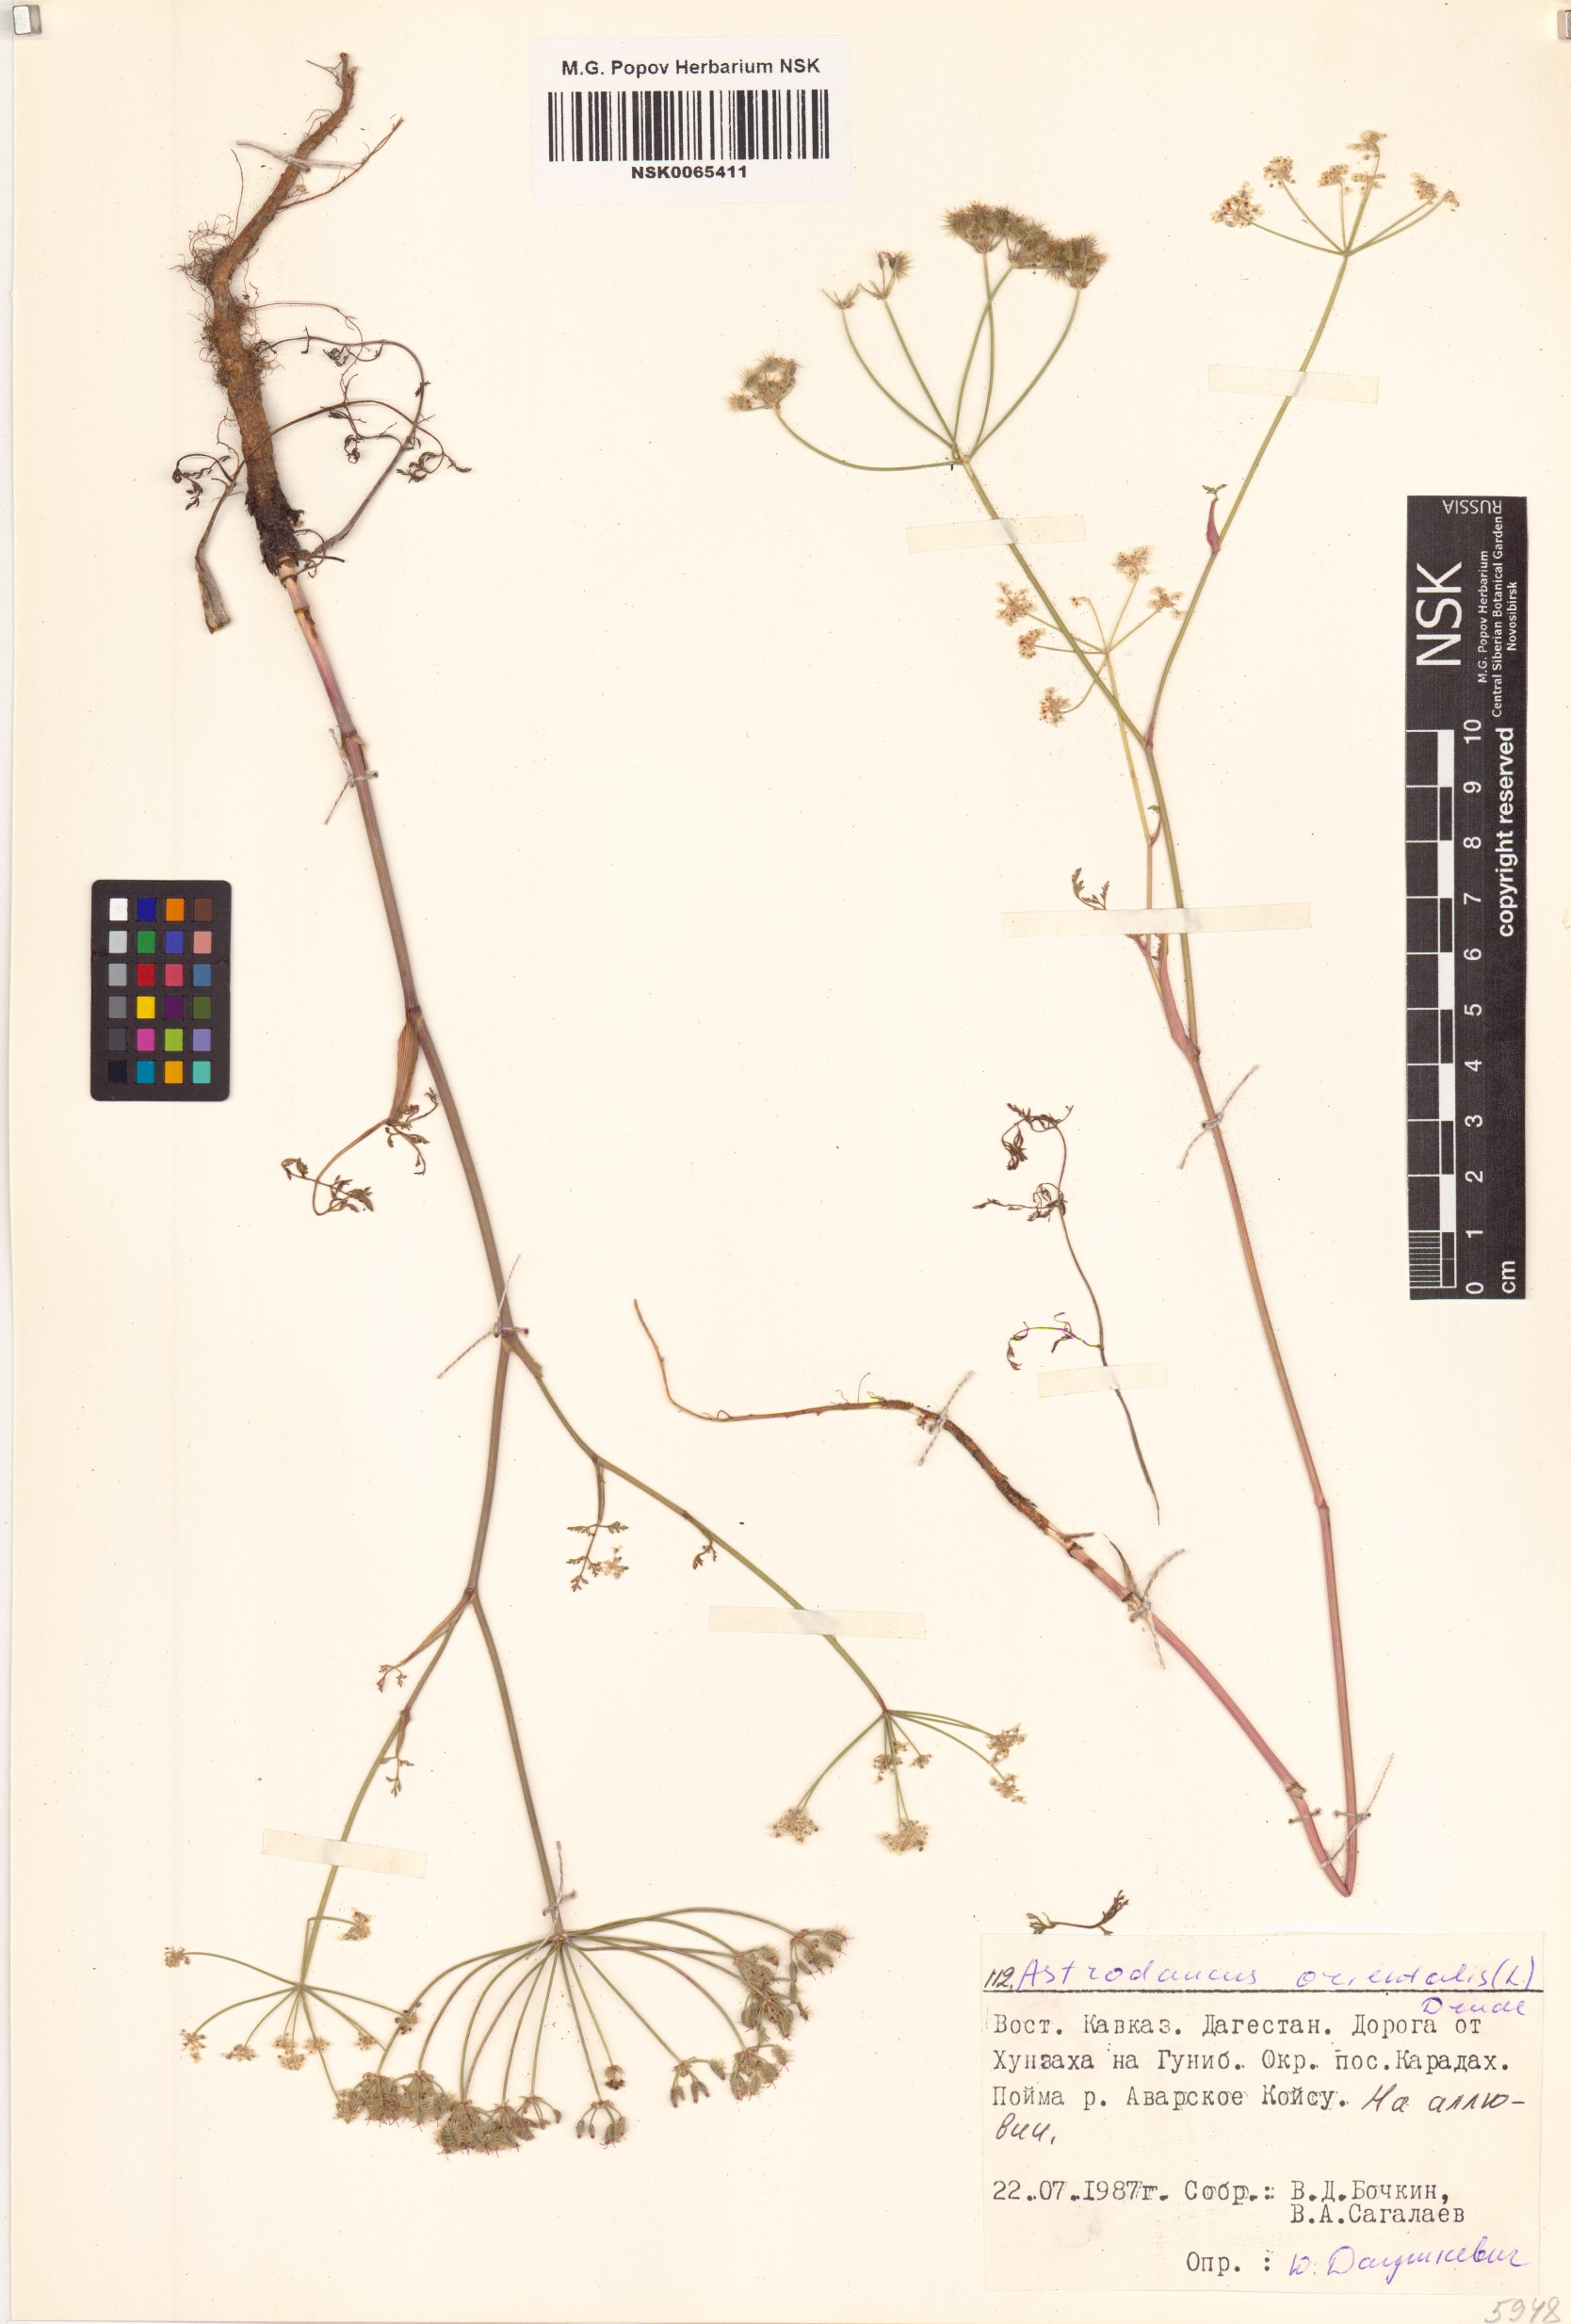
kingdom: Plantae
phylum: Tracheophyta
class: Magnoliopsida
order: Apiales
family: Apiaceae
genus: Astrodaucus
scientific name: Astrodaucus orientalis
